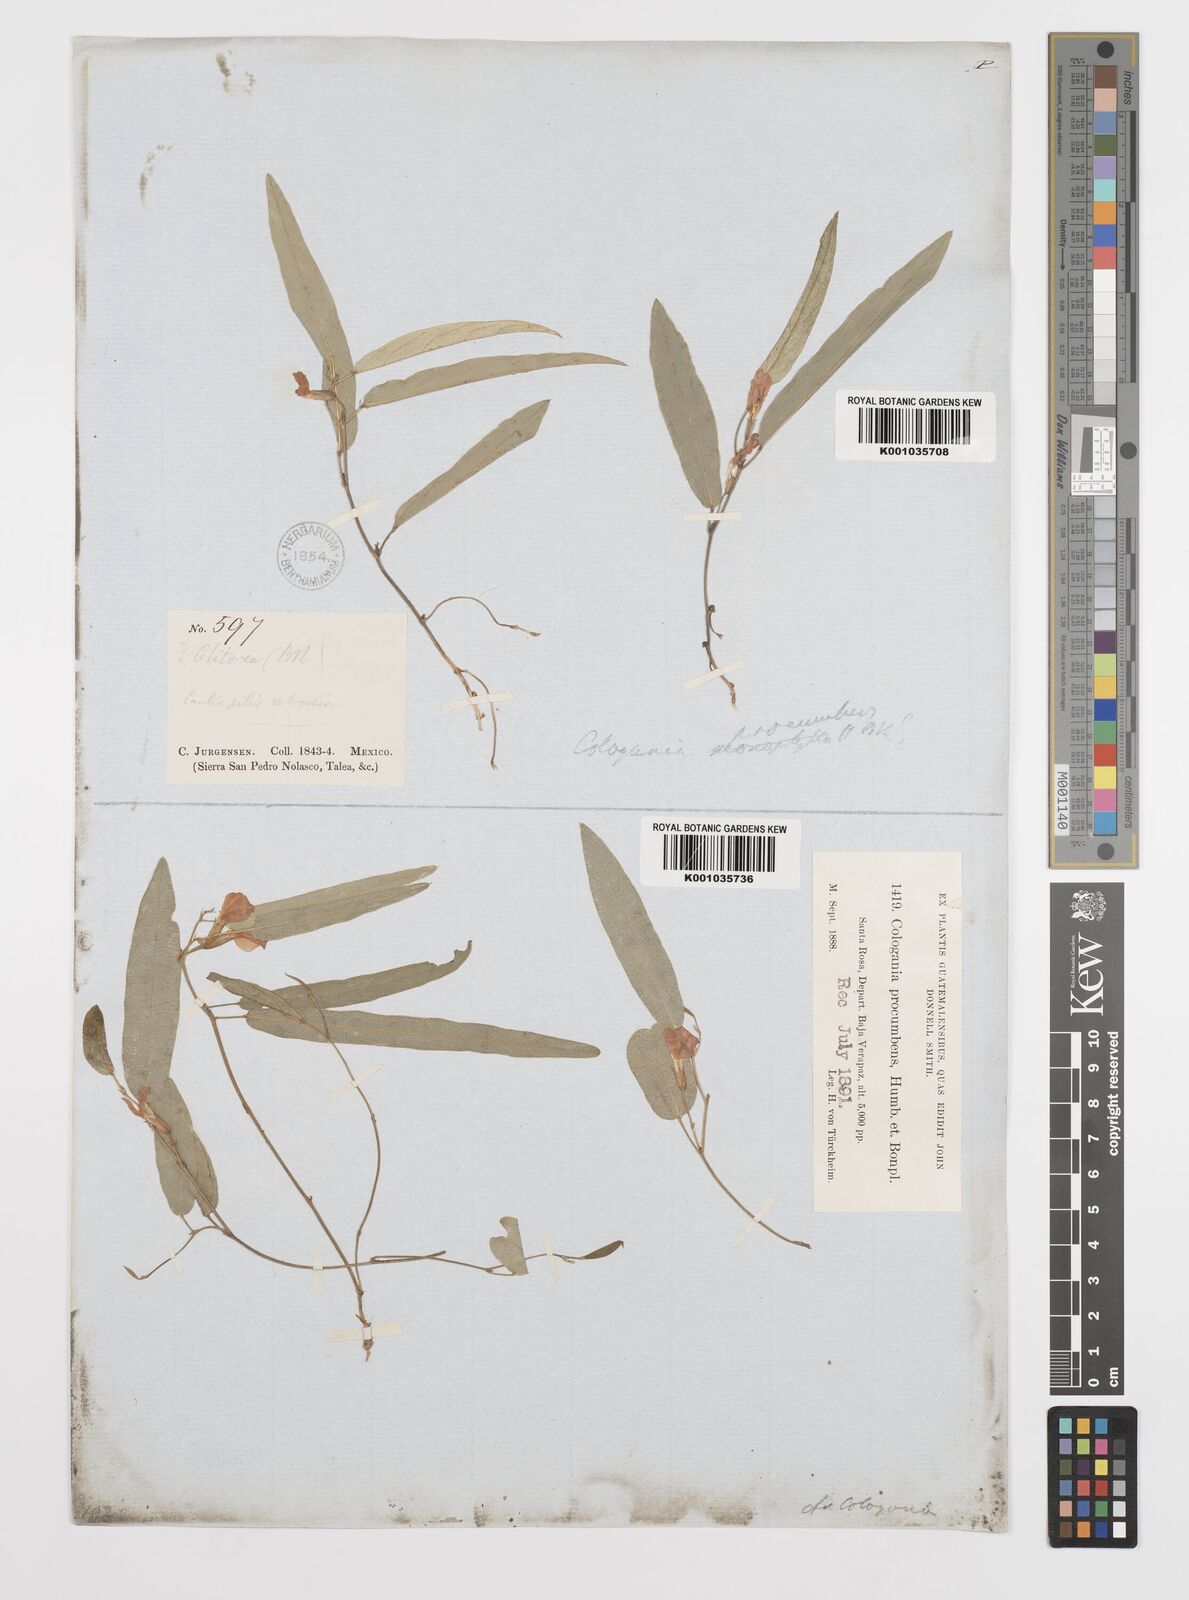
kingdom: Plantae
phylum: Tracheophyta
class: Magnoliopsida
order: Fabales
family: Fabaceae
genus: Cologania
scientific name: Cologania procumbens
